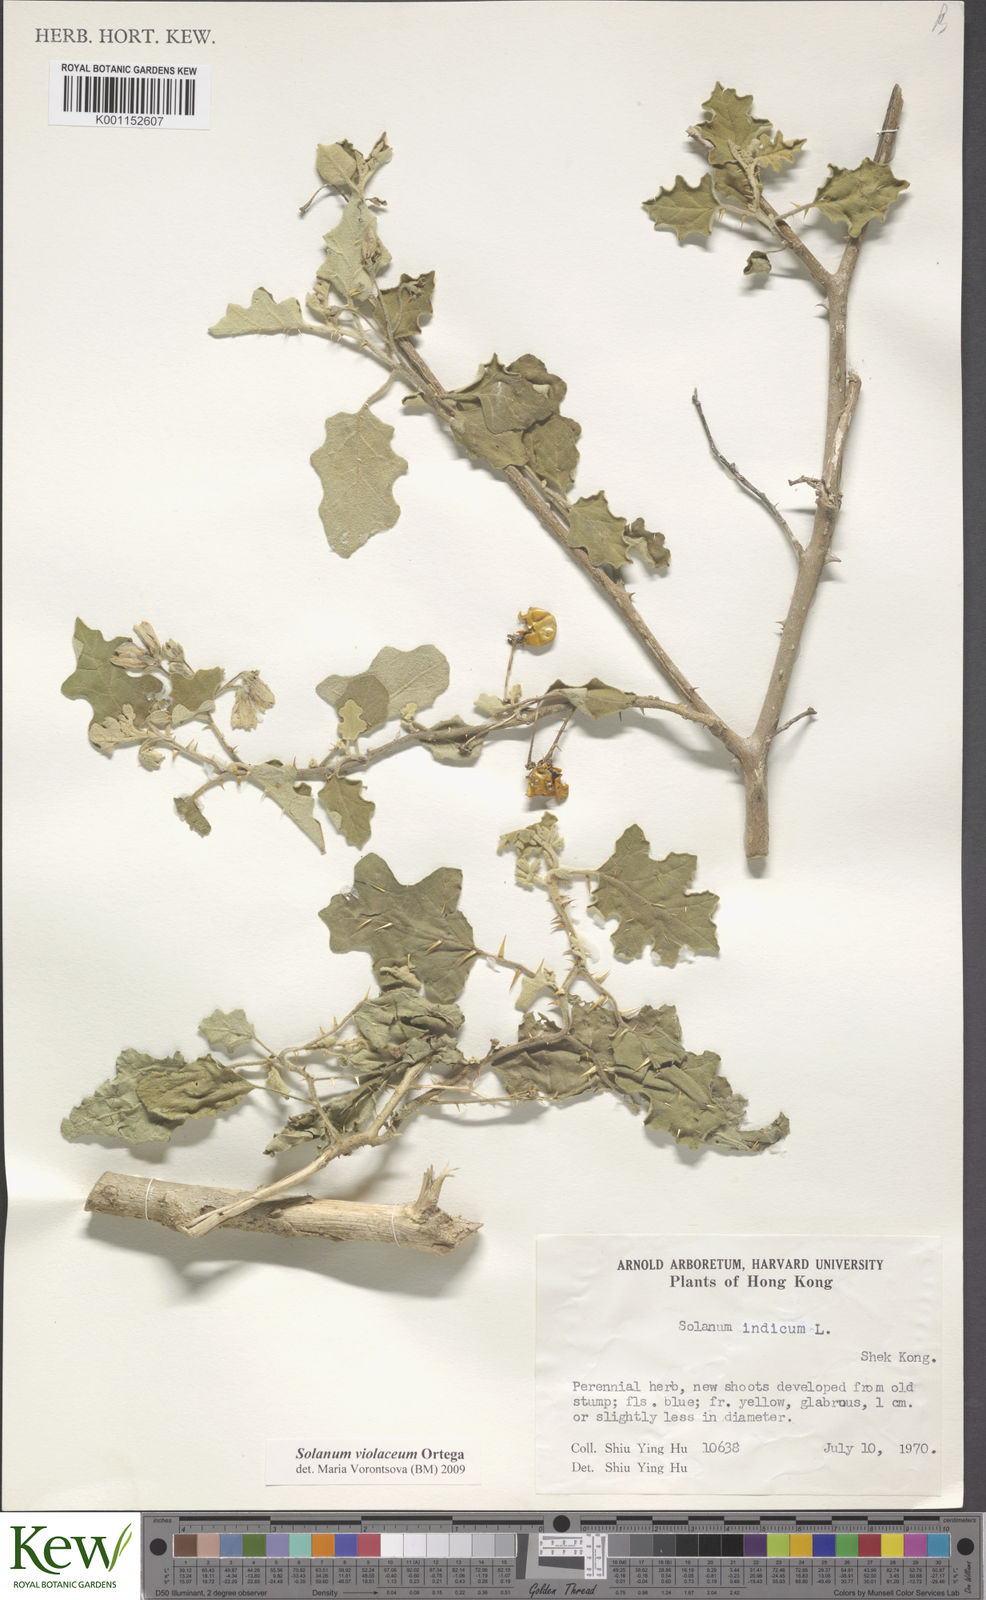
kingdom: Plantae
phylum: Tracheophyta
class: Magnoliopsida
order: Solanales
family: Solanaceae
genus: Solanum
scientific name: Solanum violaceum
